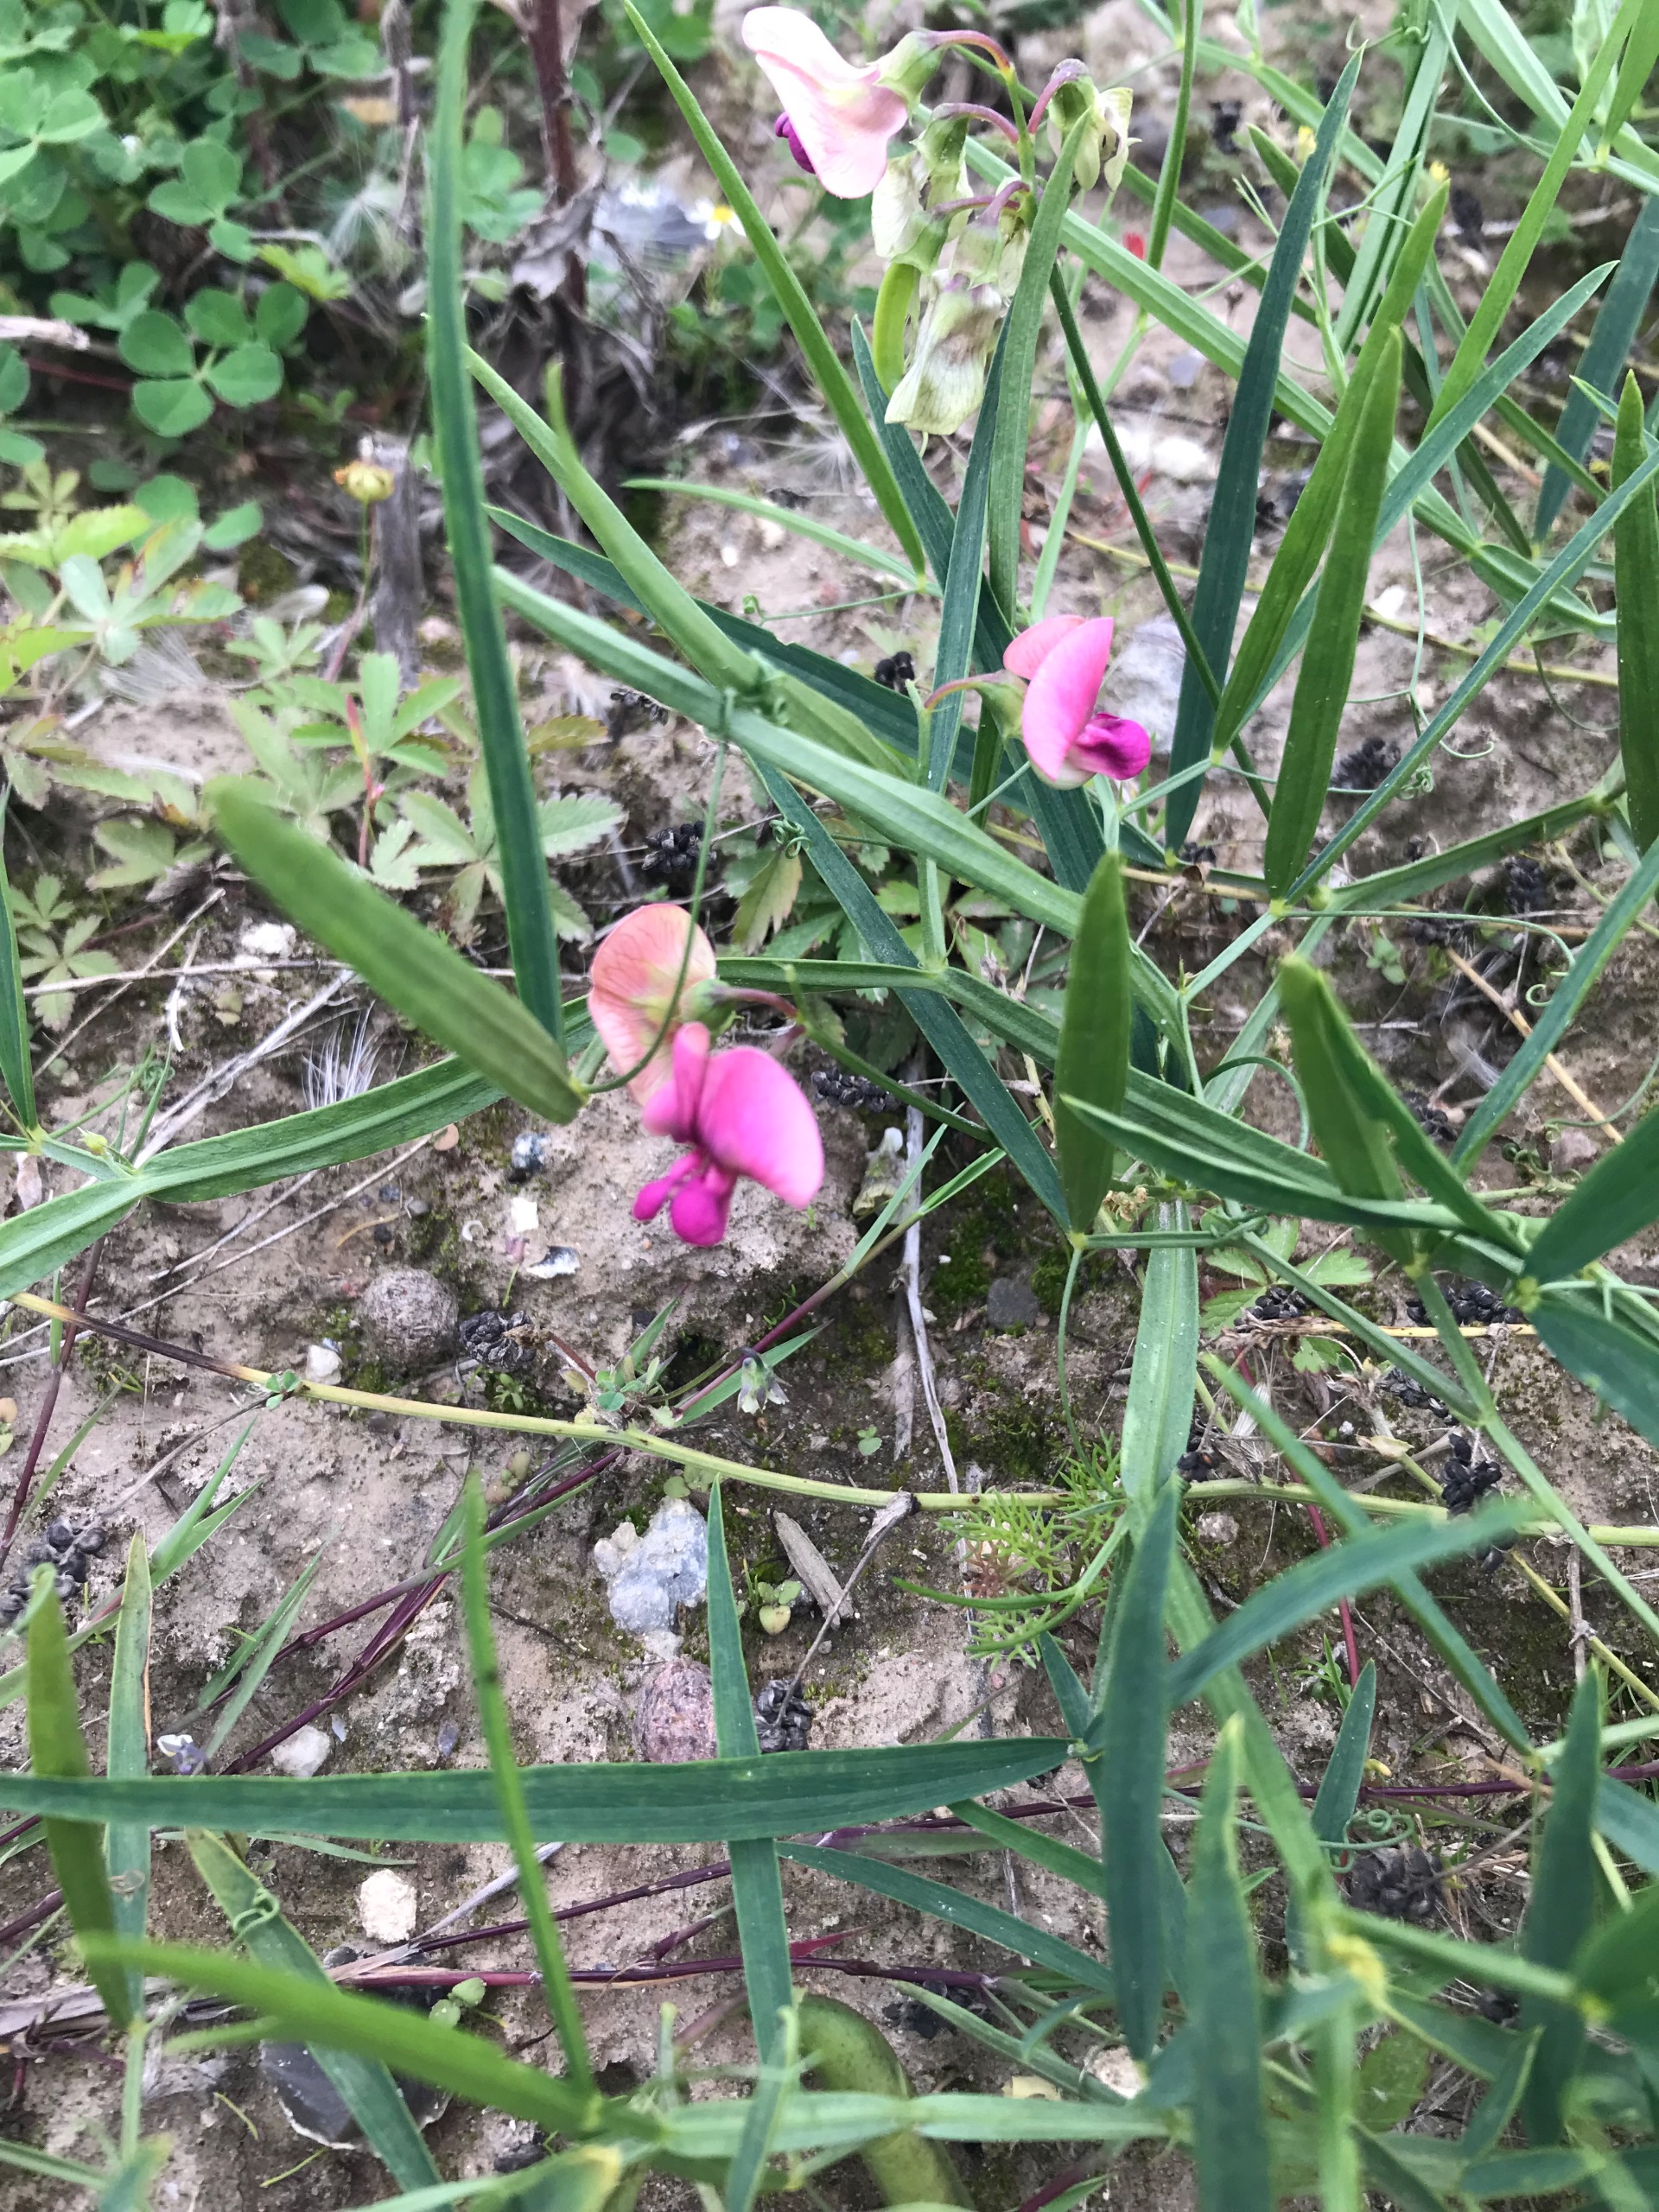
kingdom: Plantae
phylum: Tracheophyta
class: Magnoliopsida
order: Fabales
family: Fabaceae
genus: Lathyrus
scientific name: Lathyrus sylvestris
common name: Skov-fladbælg
